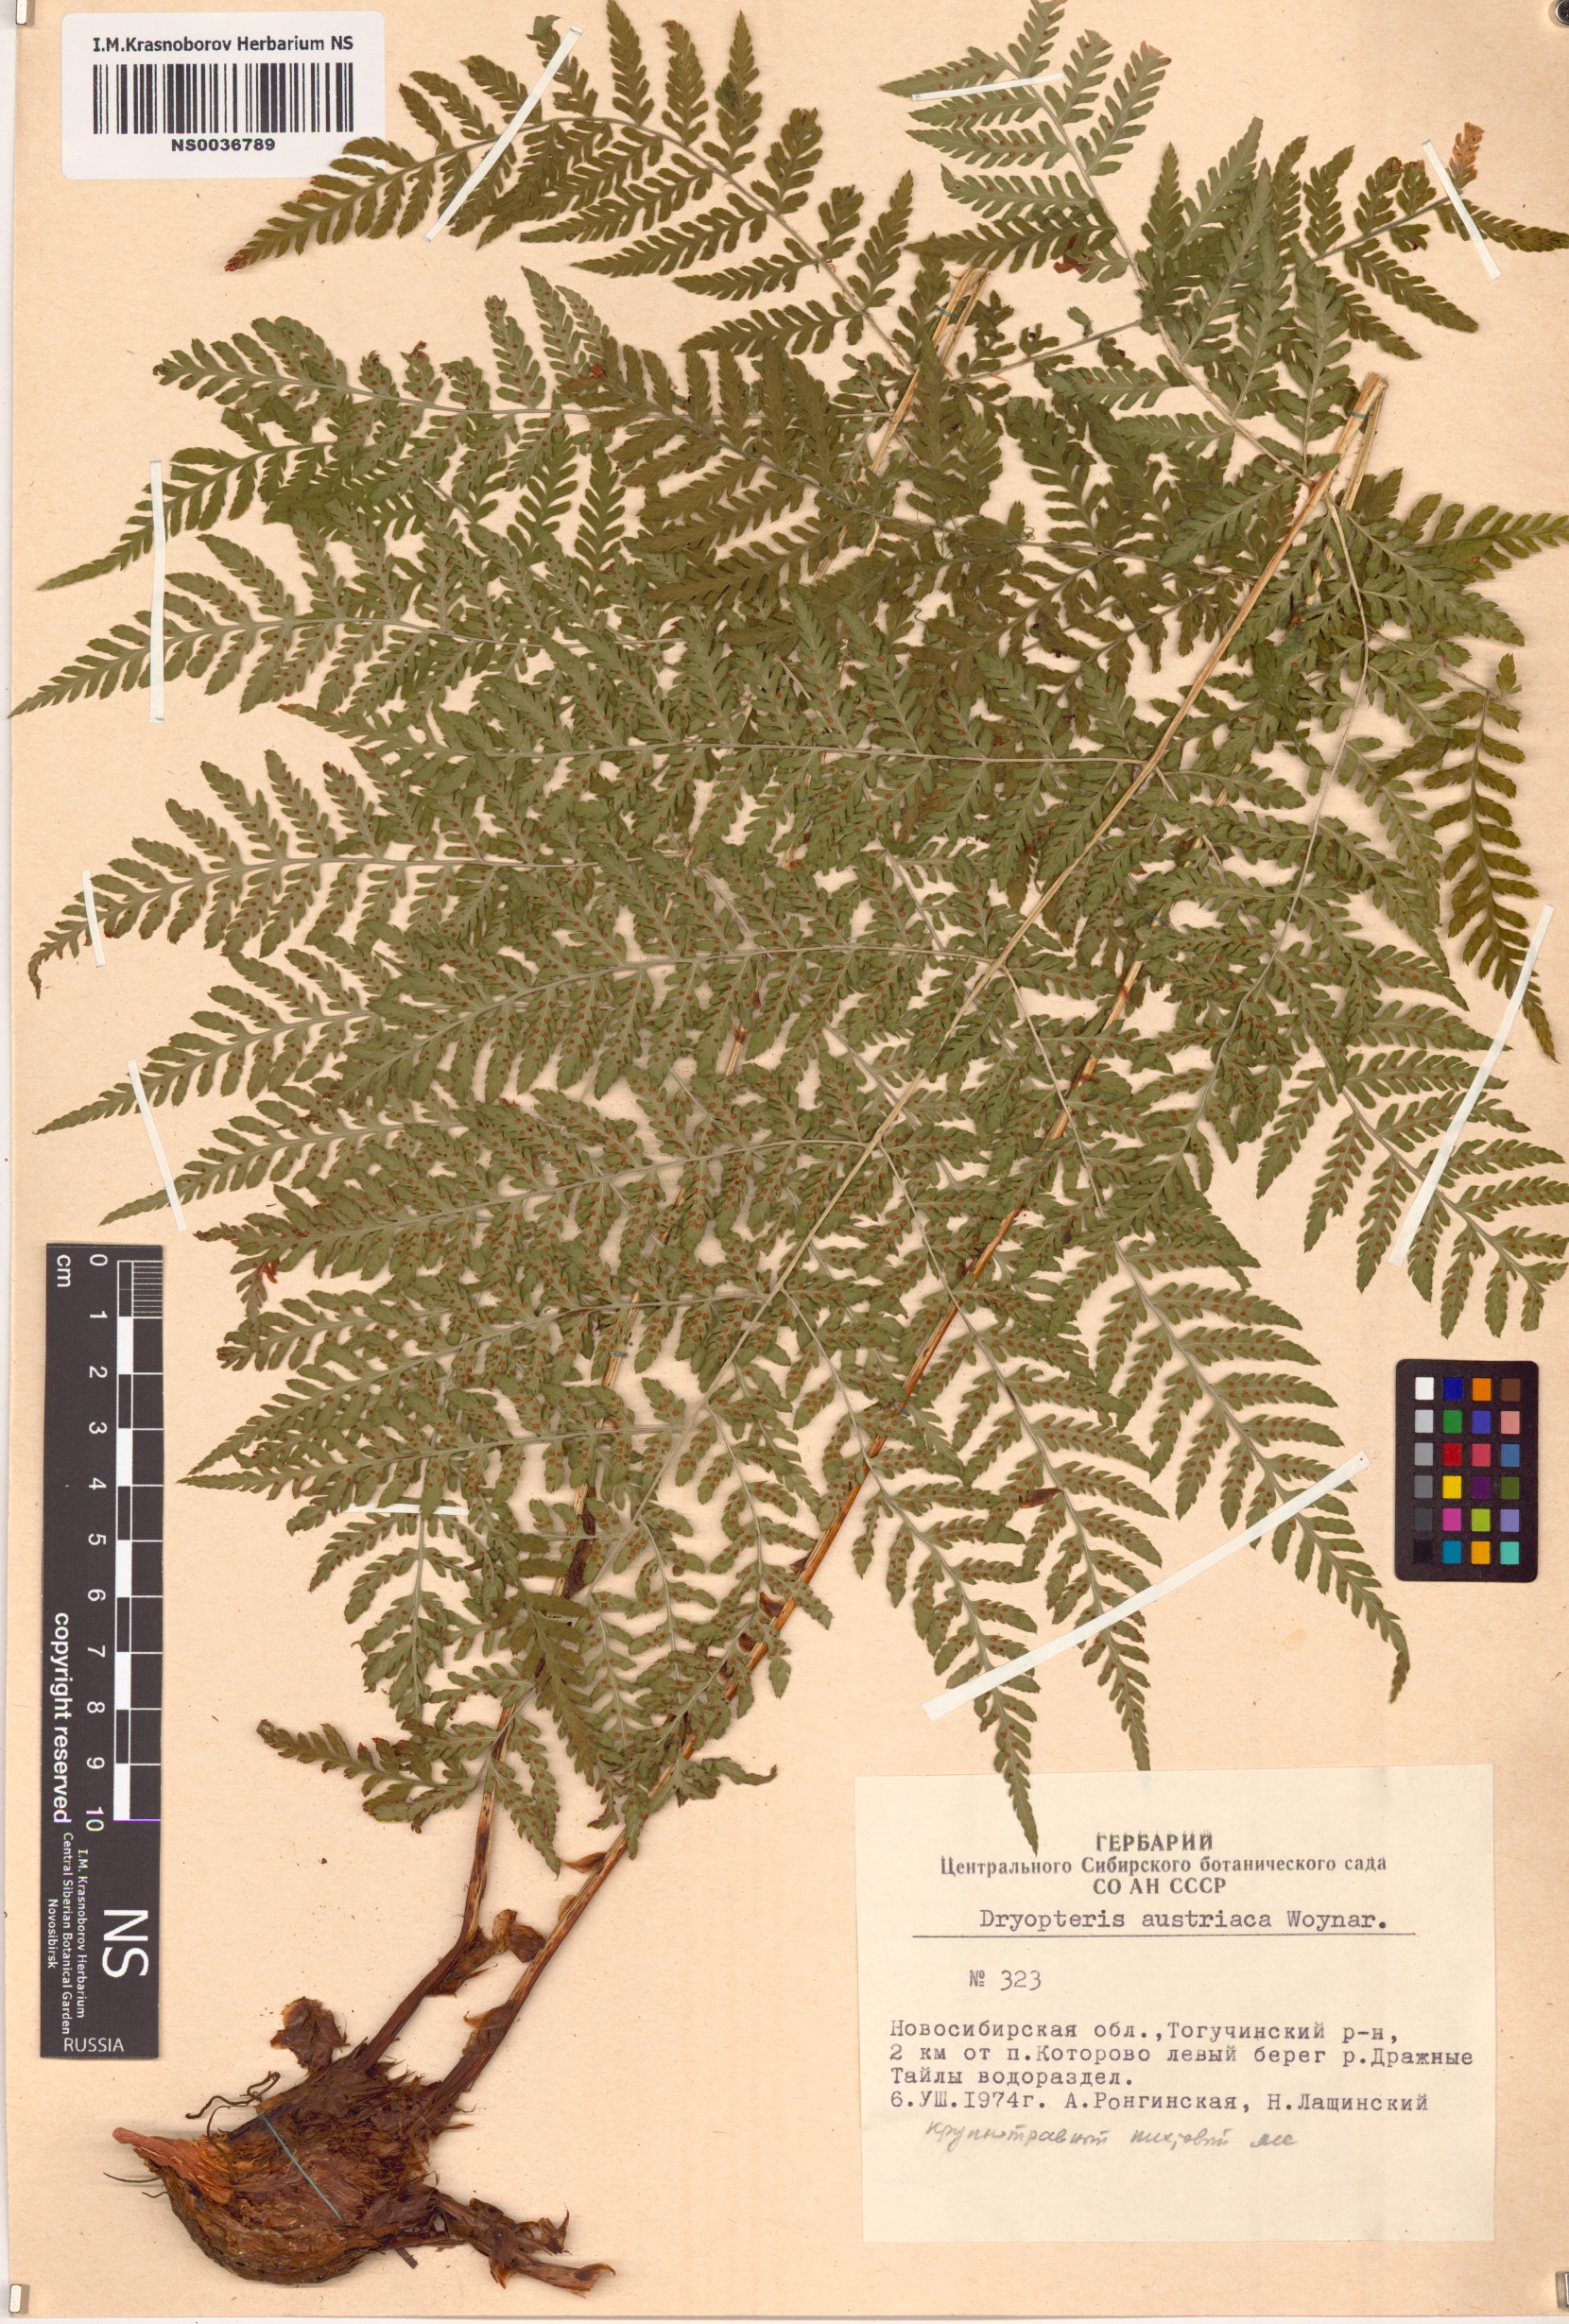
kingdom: Plantae
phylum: Tracheophyta
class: Polypodiopsida
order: Polypodiales
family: Dryopteridaceae
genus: Dryopteris
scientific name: Dryopteris dilatata
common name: Broad buckler-fern
